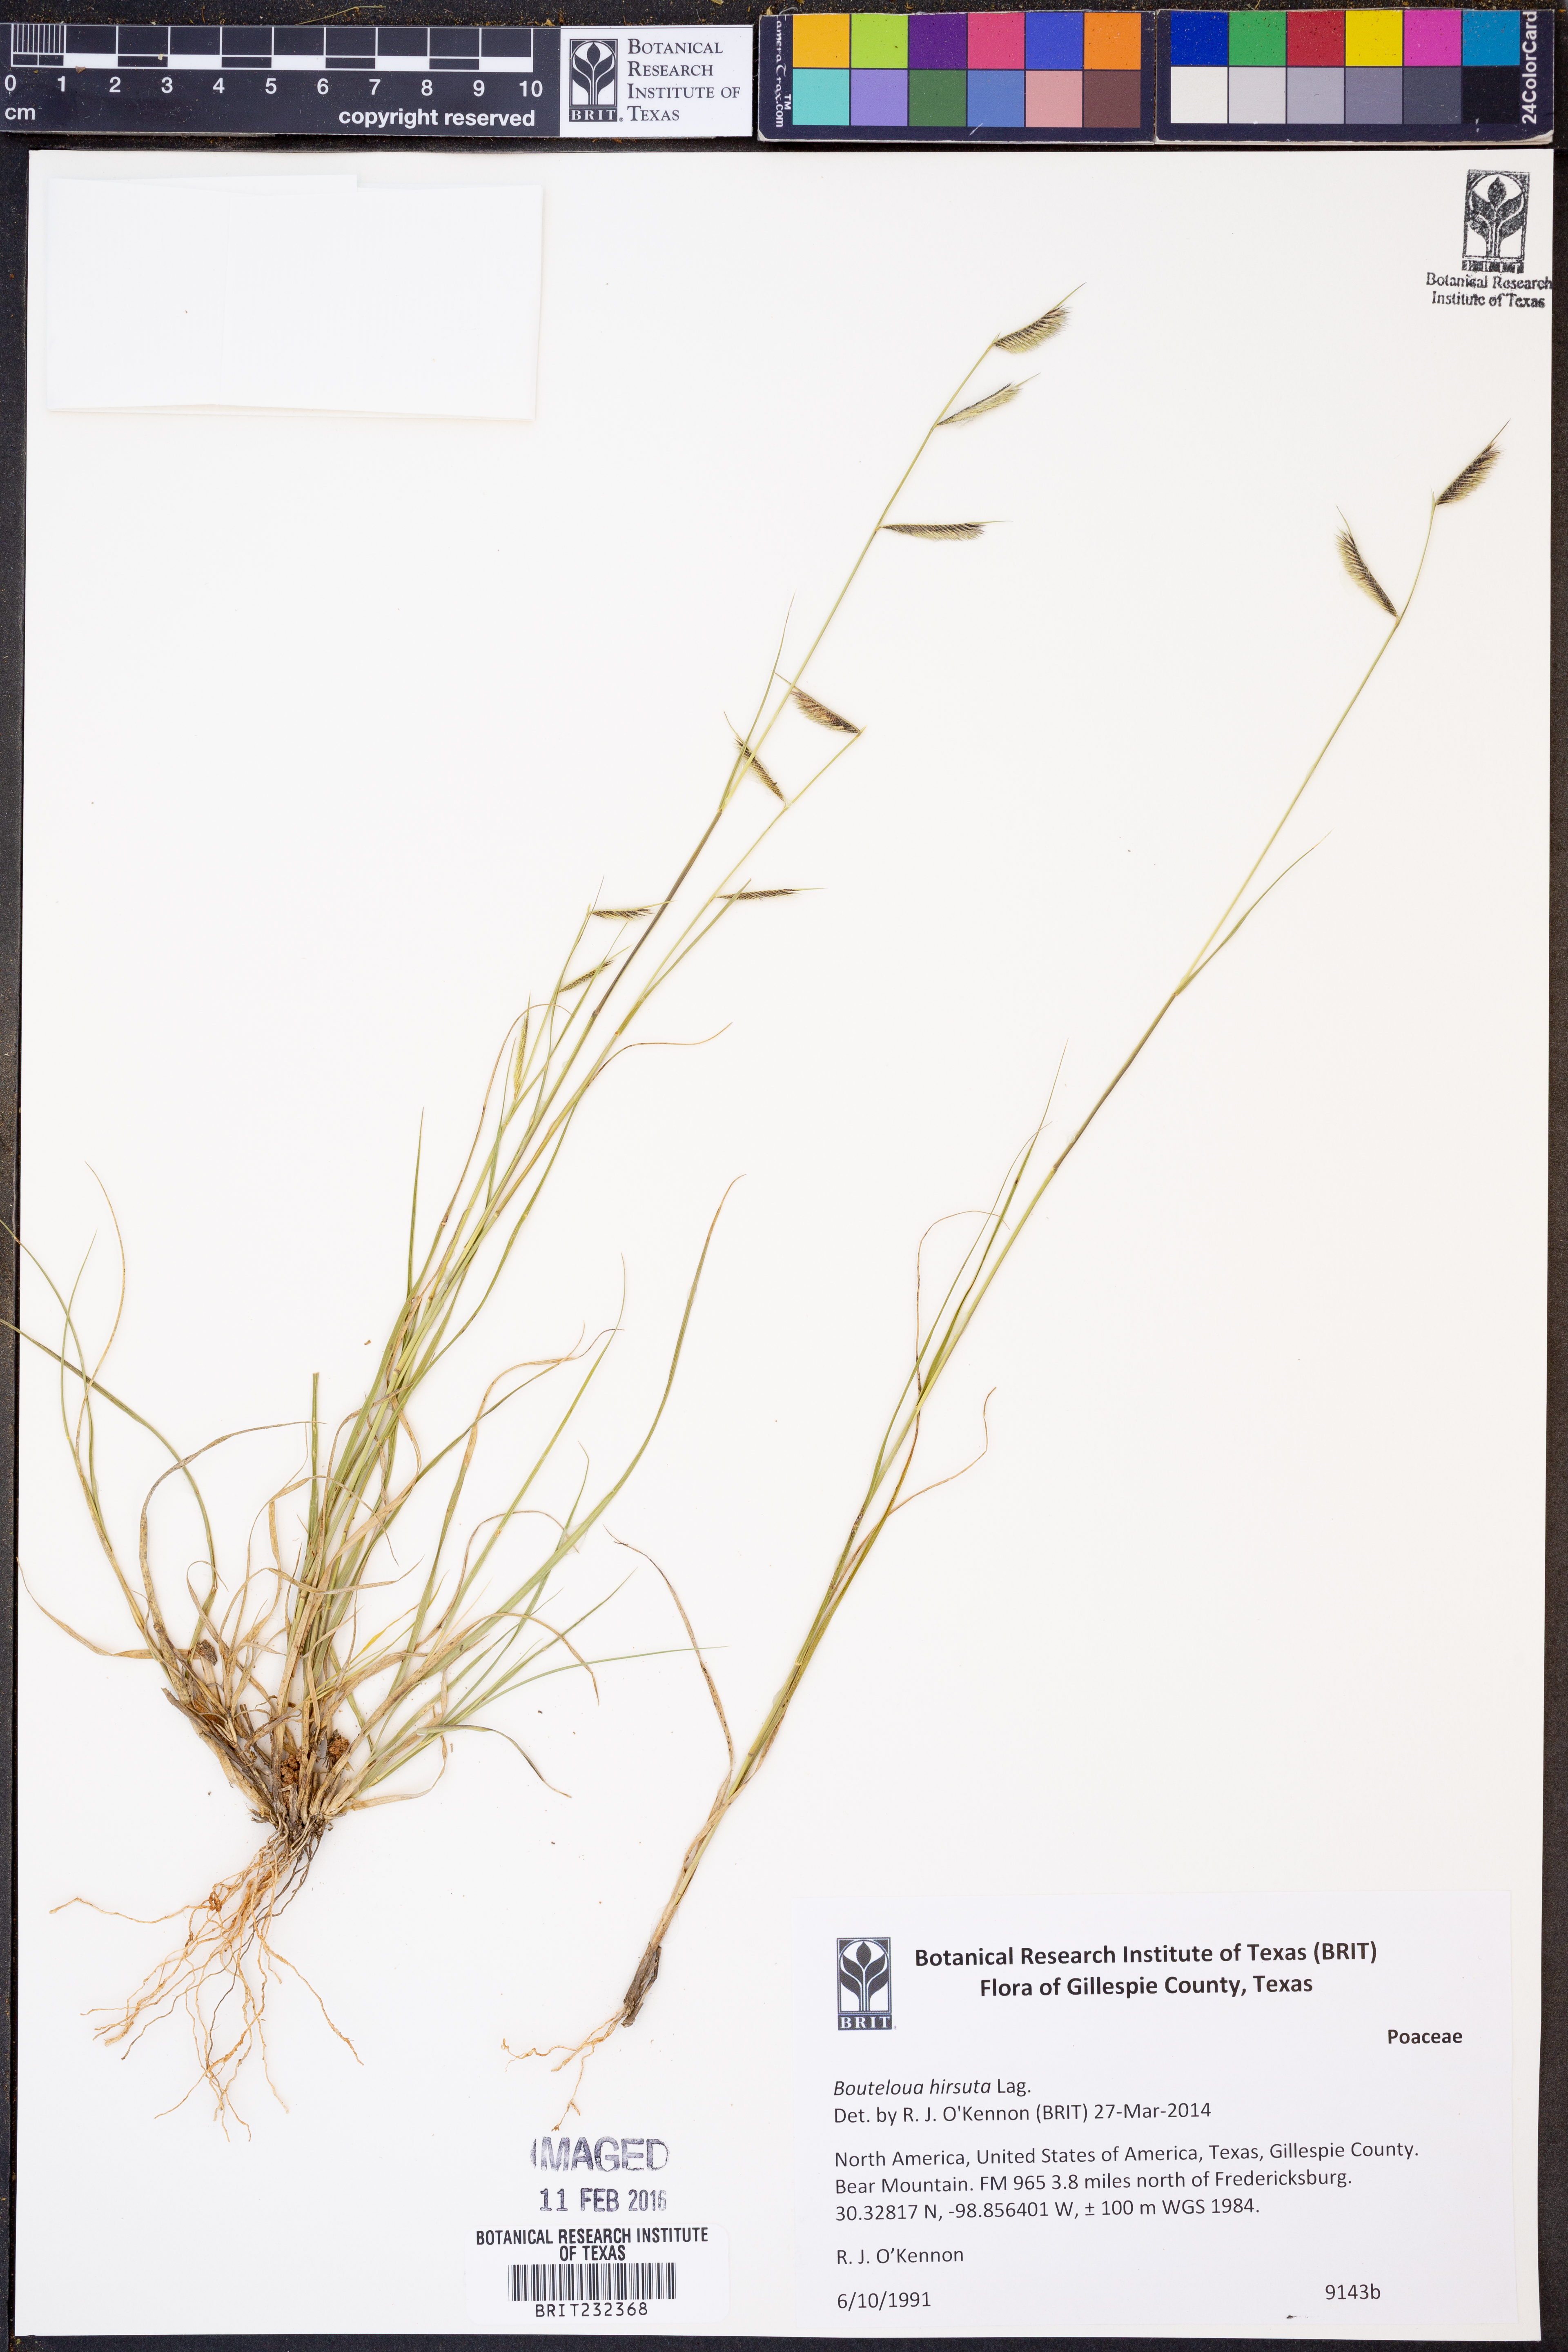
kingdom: Plantae
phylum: Tracheophyta
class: Liliopsida
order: Poales
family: Poaceae
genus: Bouteloua
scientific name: Bouteloua hirsuta
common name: Hairy grama
